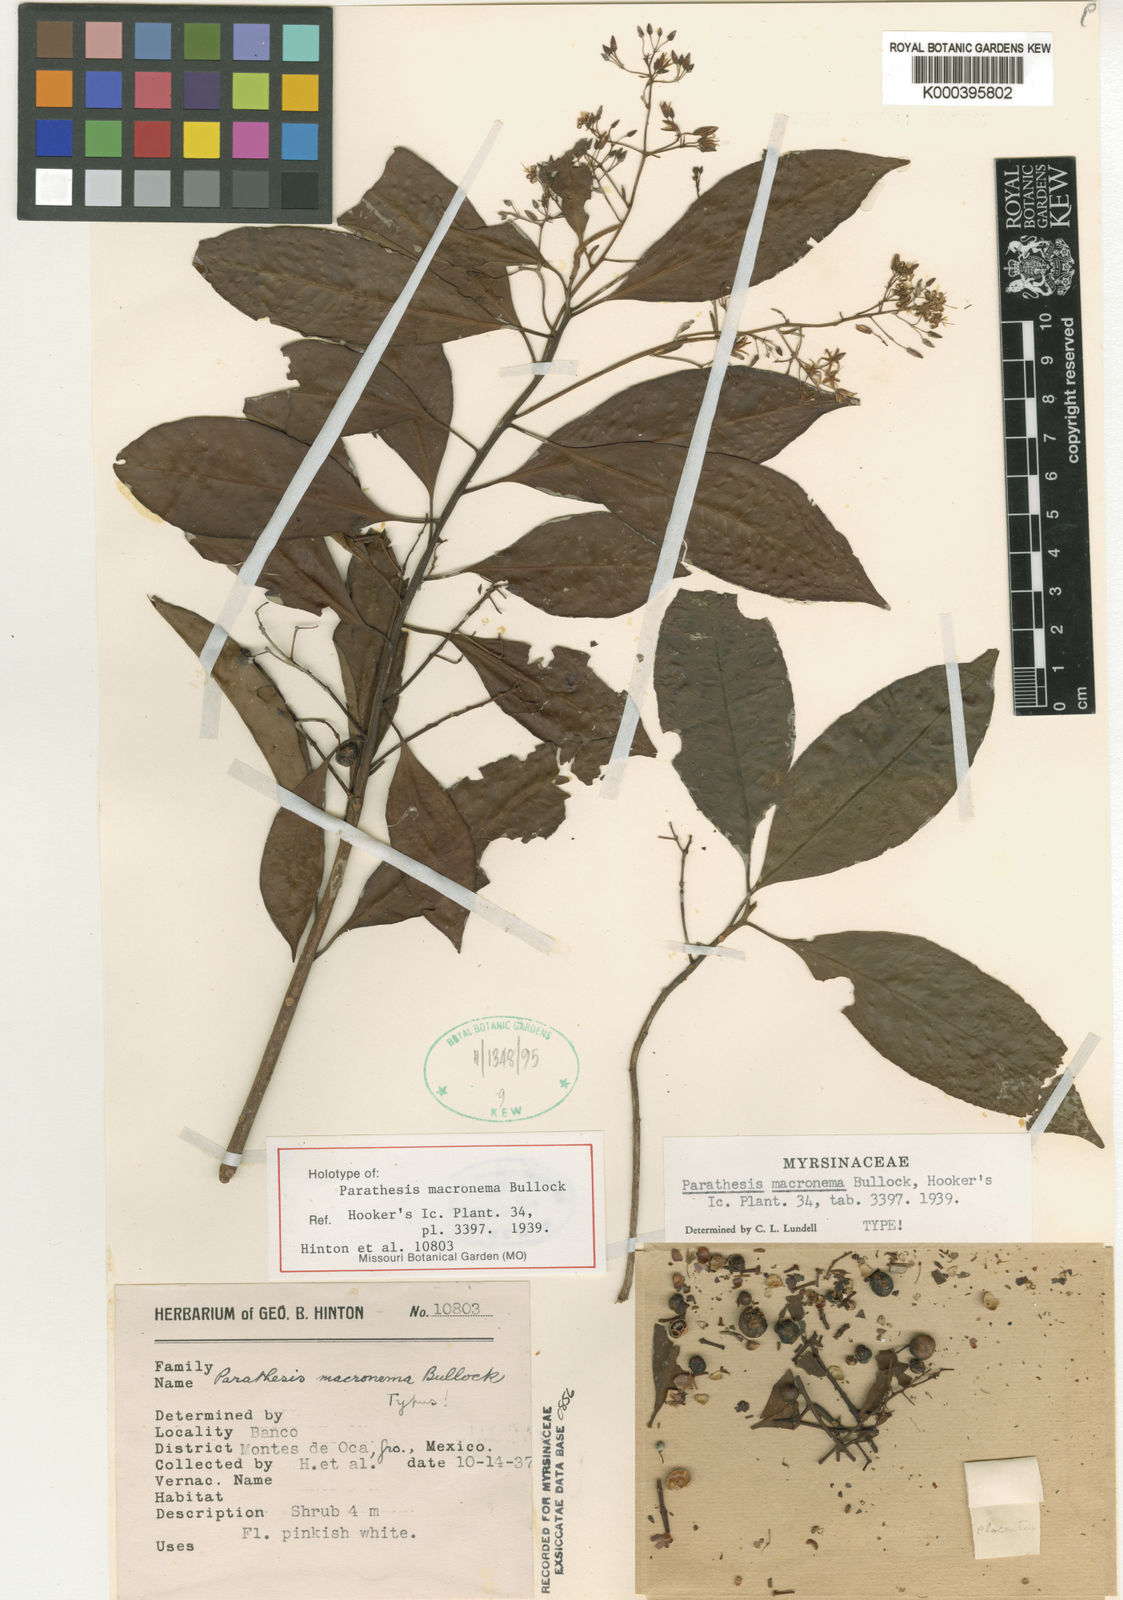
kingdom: Plantae
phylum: Tracheophyta
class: Magnoliopsida
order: Ericales
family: Primulaceae
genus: Parathesis
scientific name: Parathesis macronema
